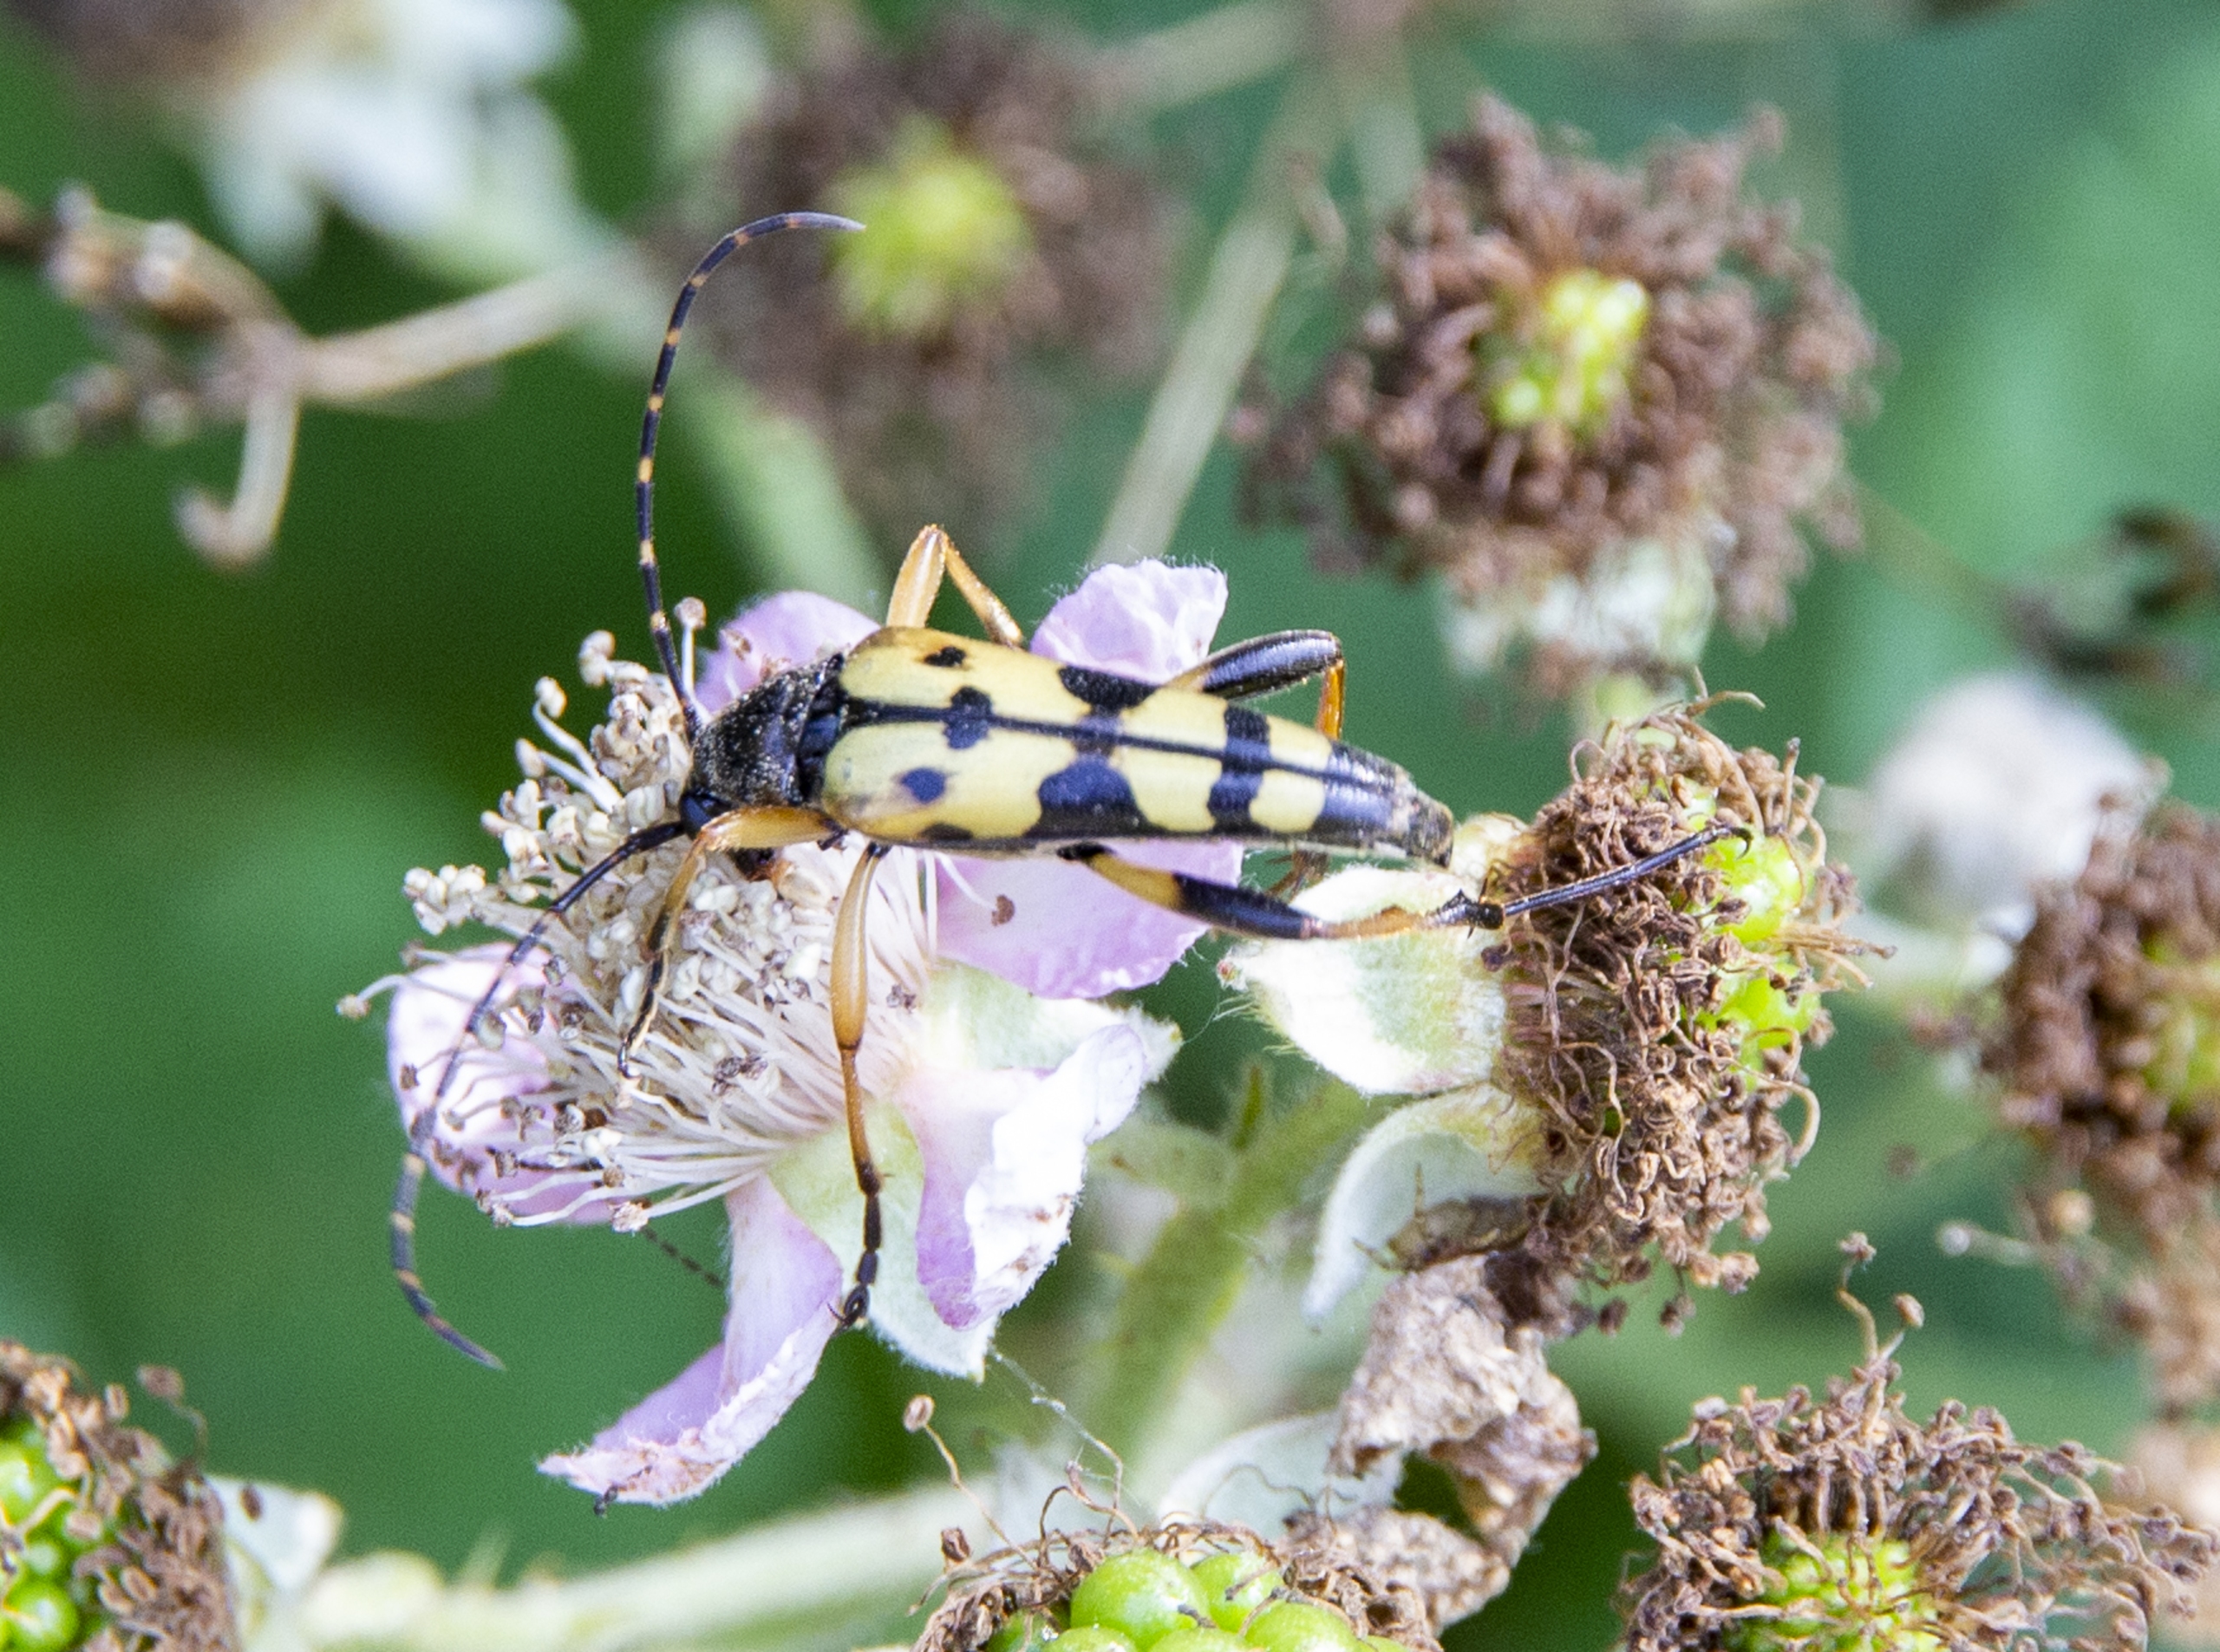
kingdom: Animalia
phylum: Arthropoda
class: Insecta
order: Coleoptera
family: Cerambycidae
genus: Rutpela
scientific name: Rutpela maculata
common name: Sydlig blomsterbuk
